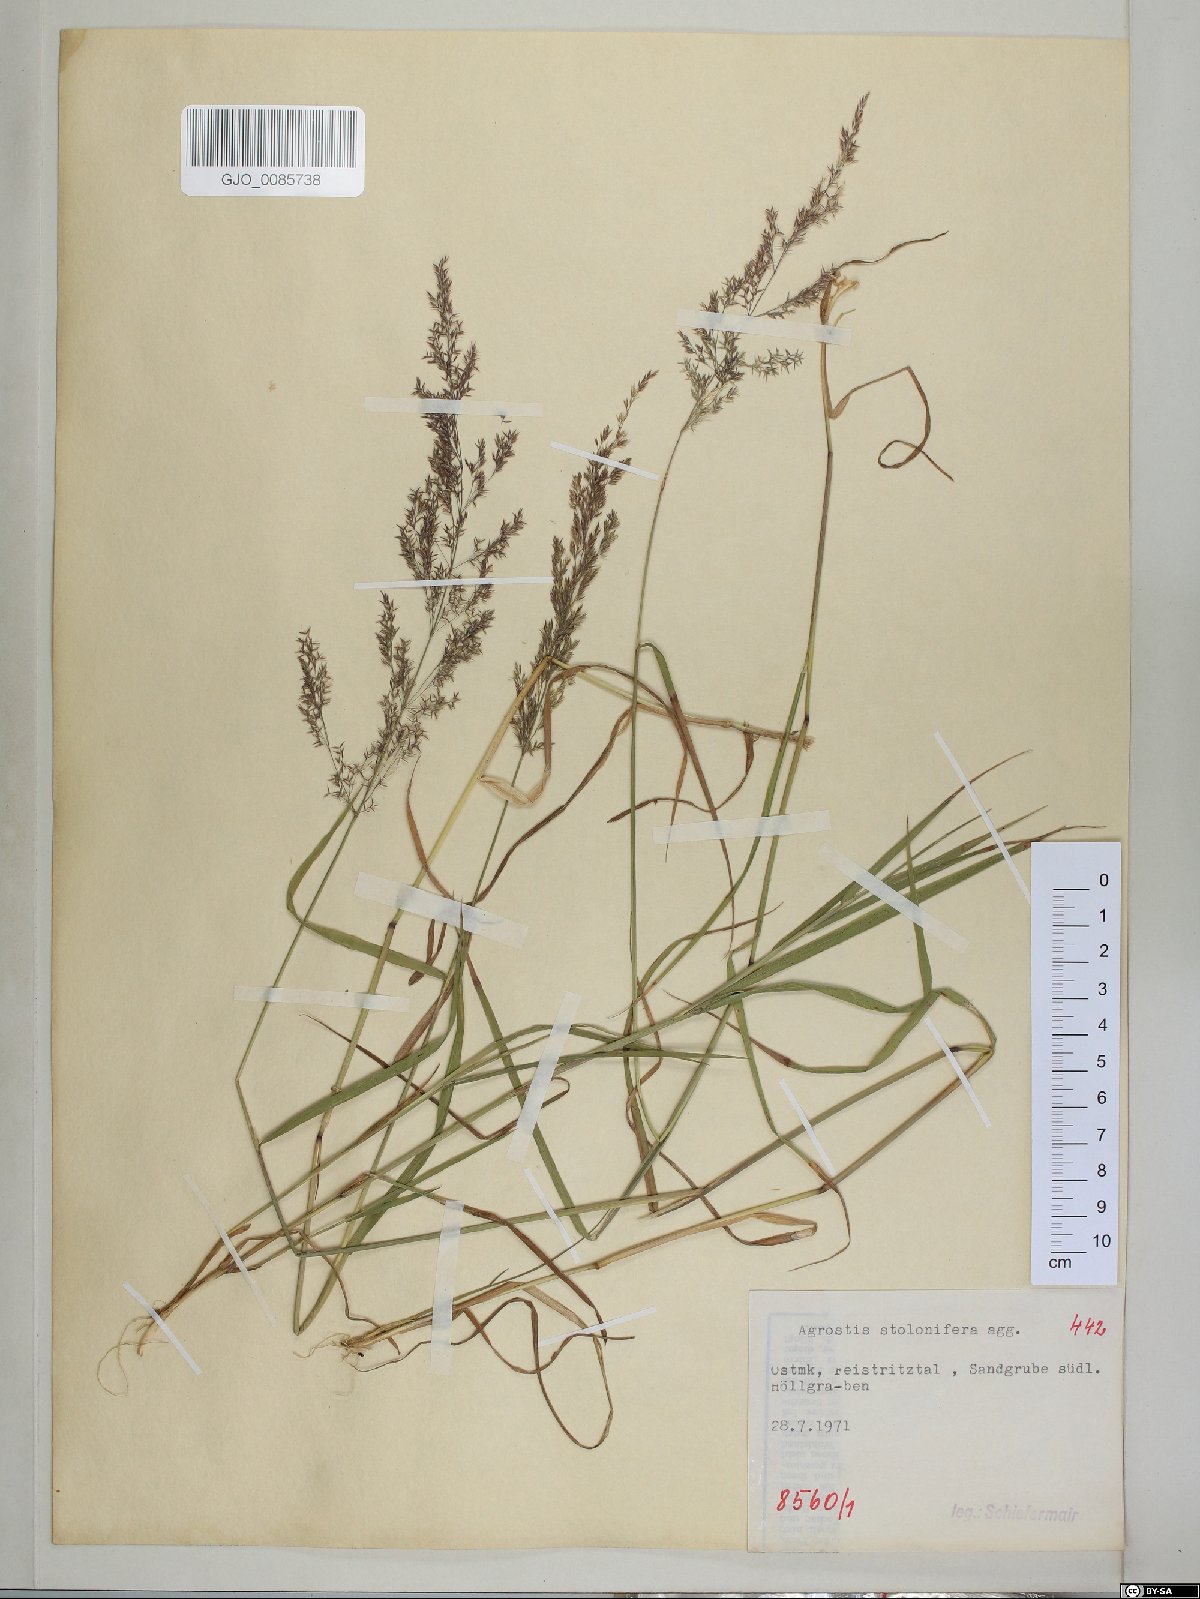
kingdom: Plantae
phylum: Tracheophyta
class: Liliopsida
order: Poales
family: Poaceae
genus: Agrostis
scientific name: Agrostis stolonifera
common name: Creeping bentgrass
